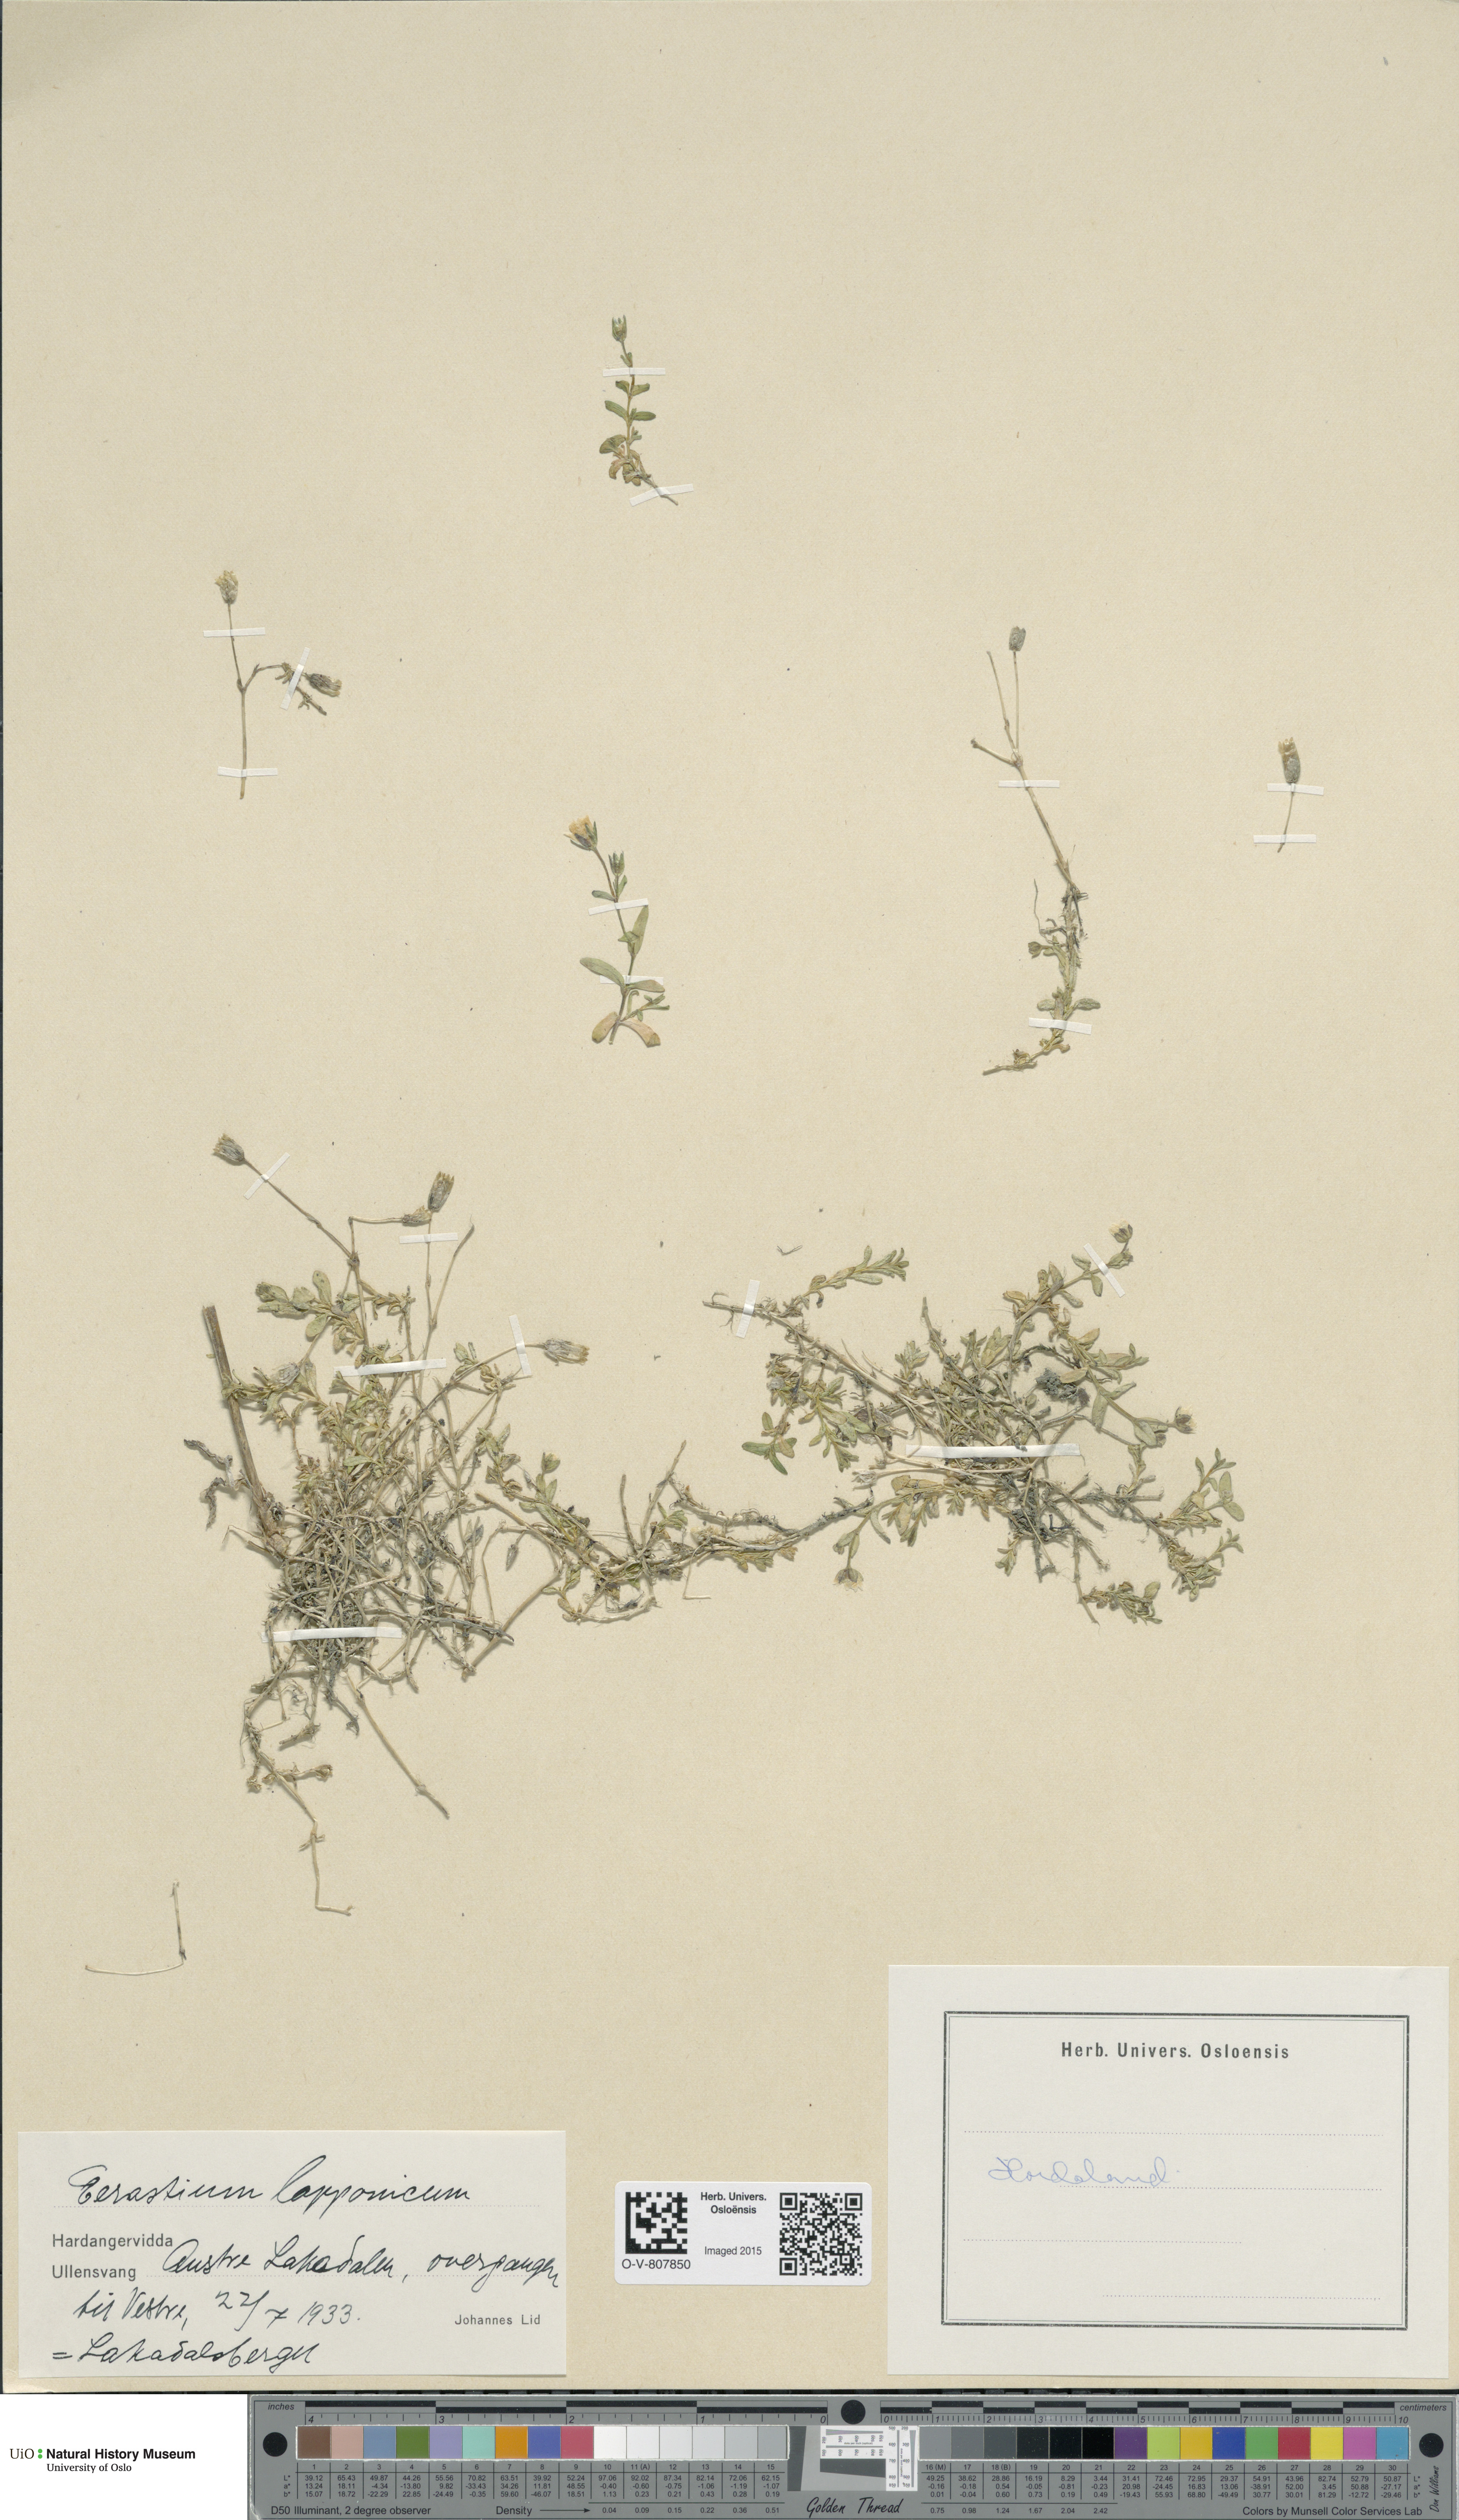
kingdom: Plantae
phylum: Tracheophyta
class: Magnoliopsida
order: Caryophyllales
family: Caryophyllaceae
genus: Dichodon
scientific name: Dichodon cerastoides
